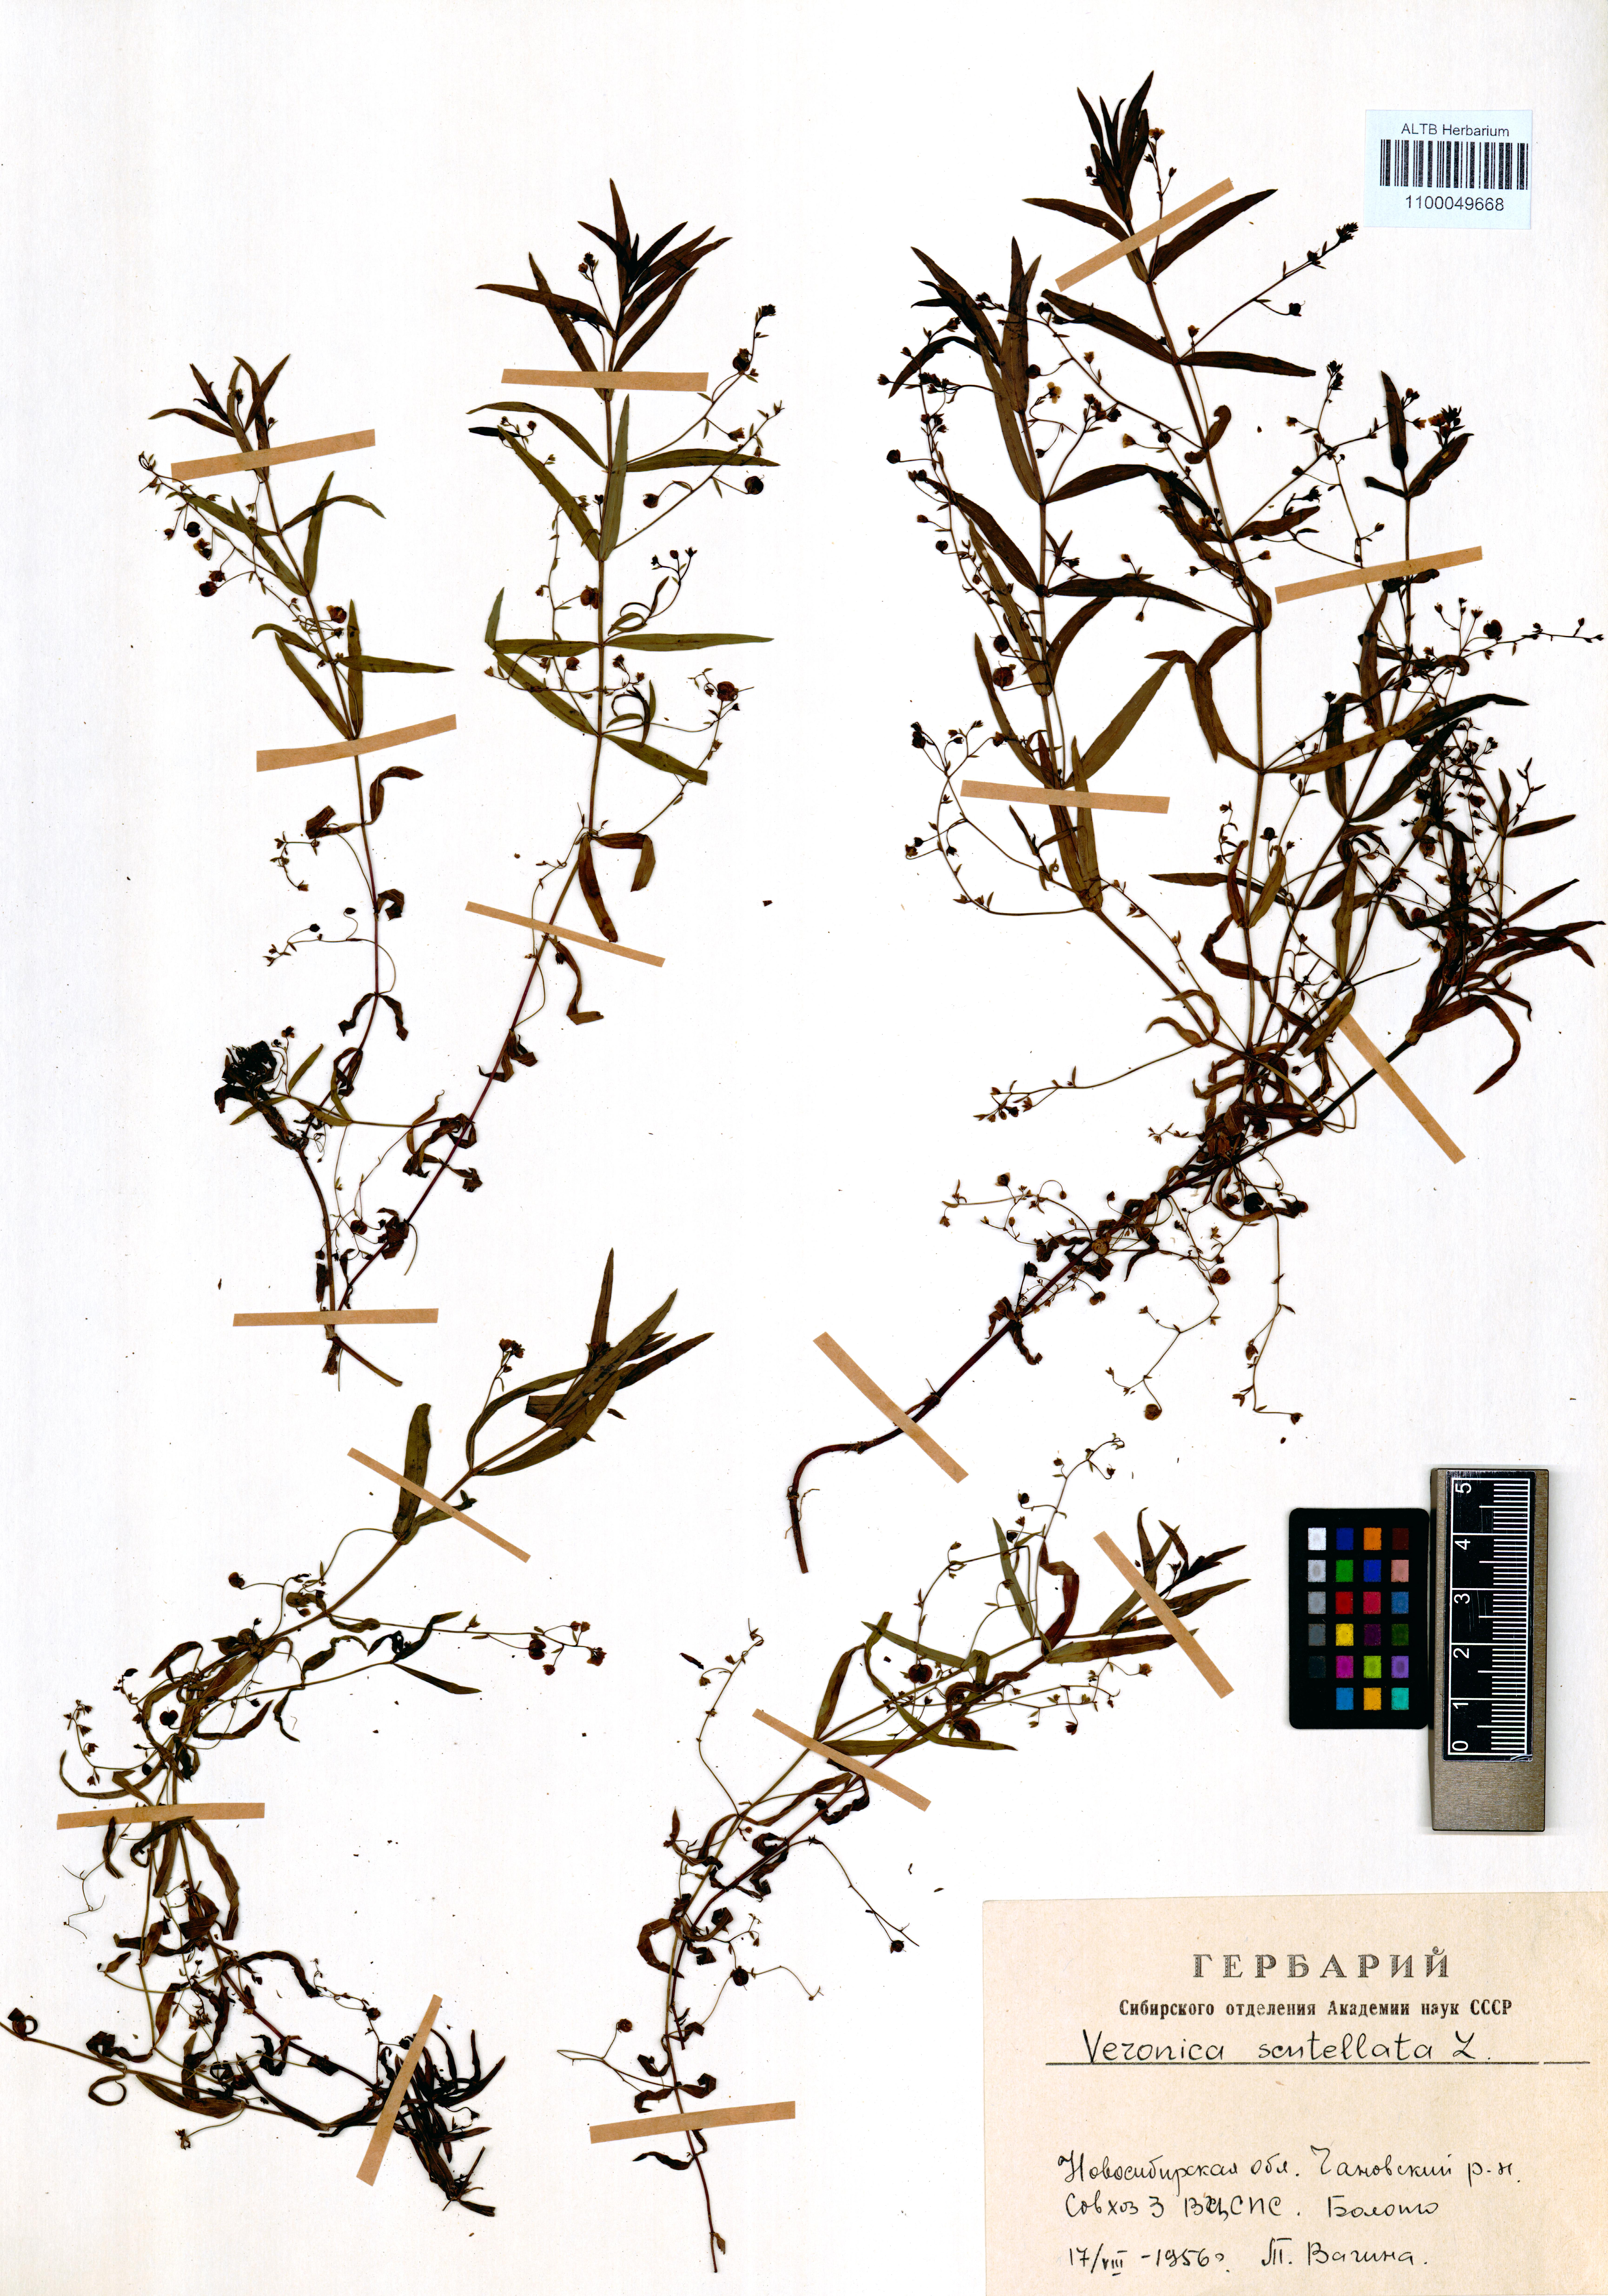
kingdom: Plantae
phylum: Tracheophyta
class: Magnoliopsida
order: Lamiales
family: Plantaginaceae
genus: Veronica
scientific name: Veronica scutellata
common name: Marsh speedwell
